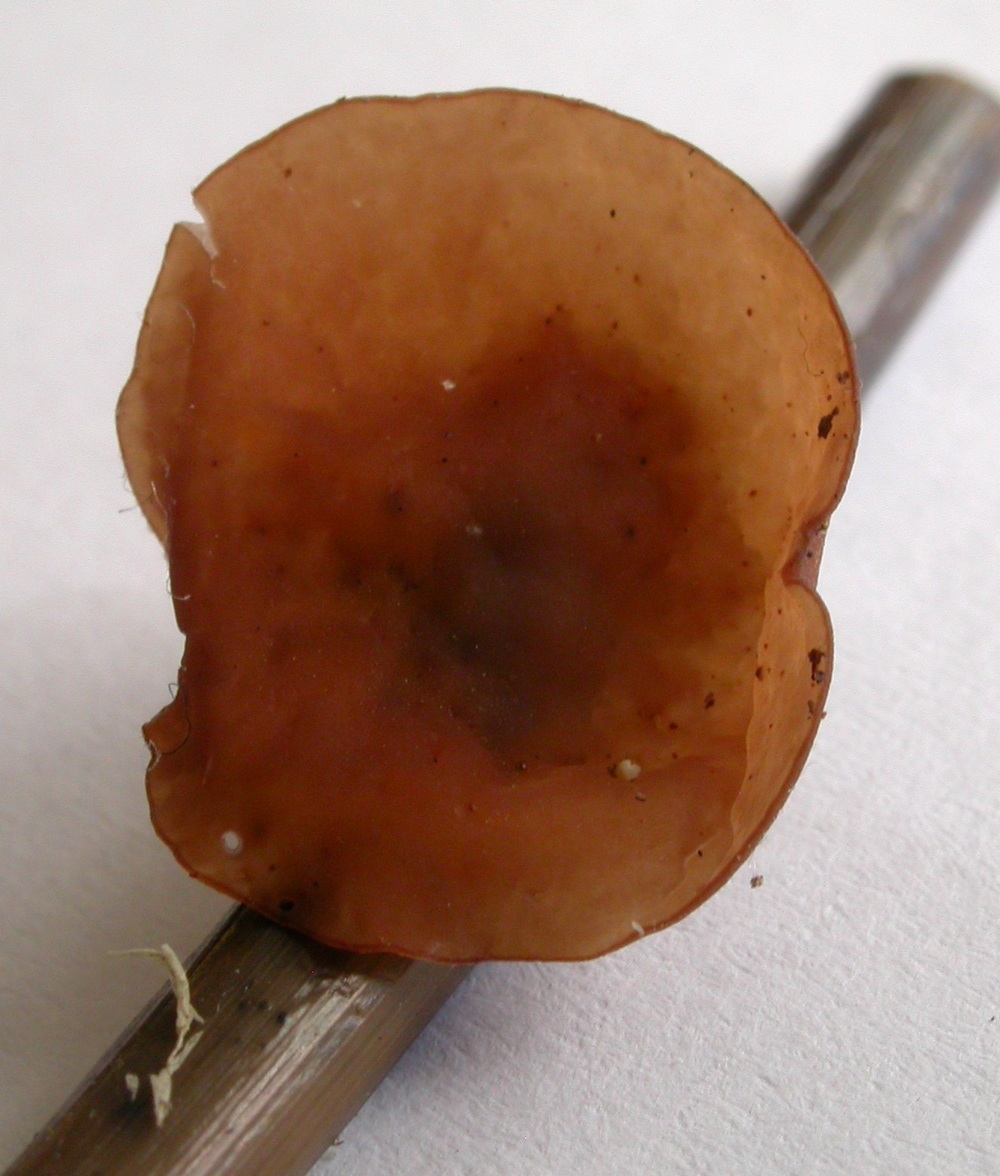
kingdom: Fungi
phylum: Ascomycota
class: Leotiomycetes
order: Helotiales
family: Sclerotiniaceae
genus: Myriosclerotinia
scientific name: Myriosclerotinia curreyana
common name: siv-knoldskive
